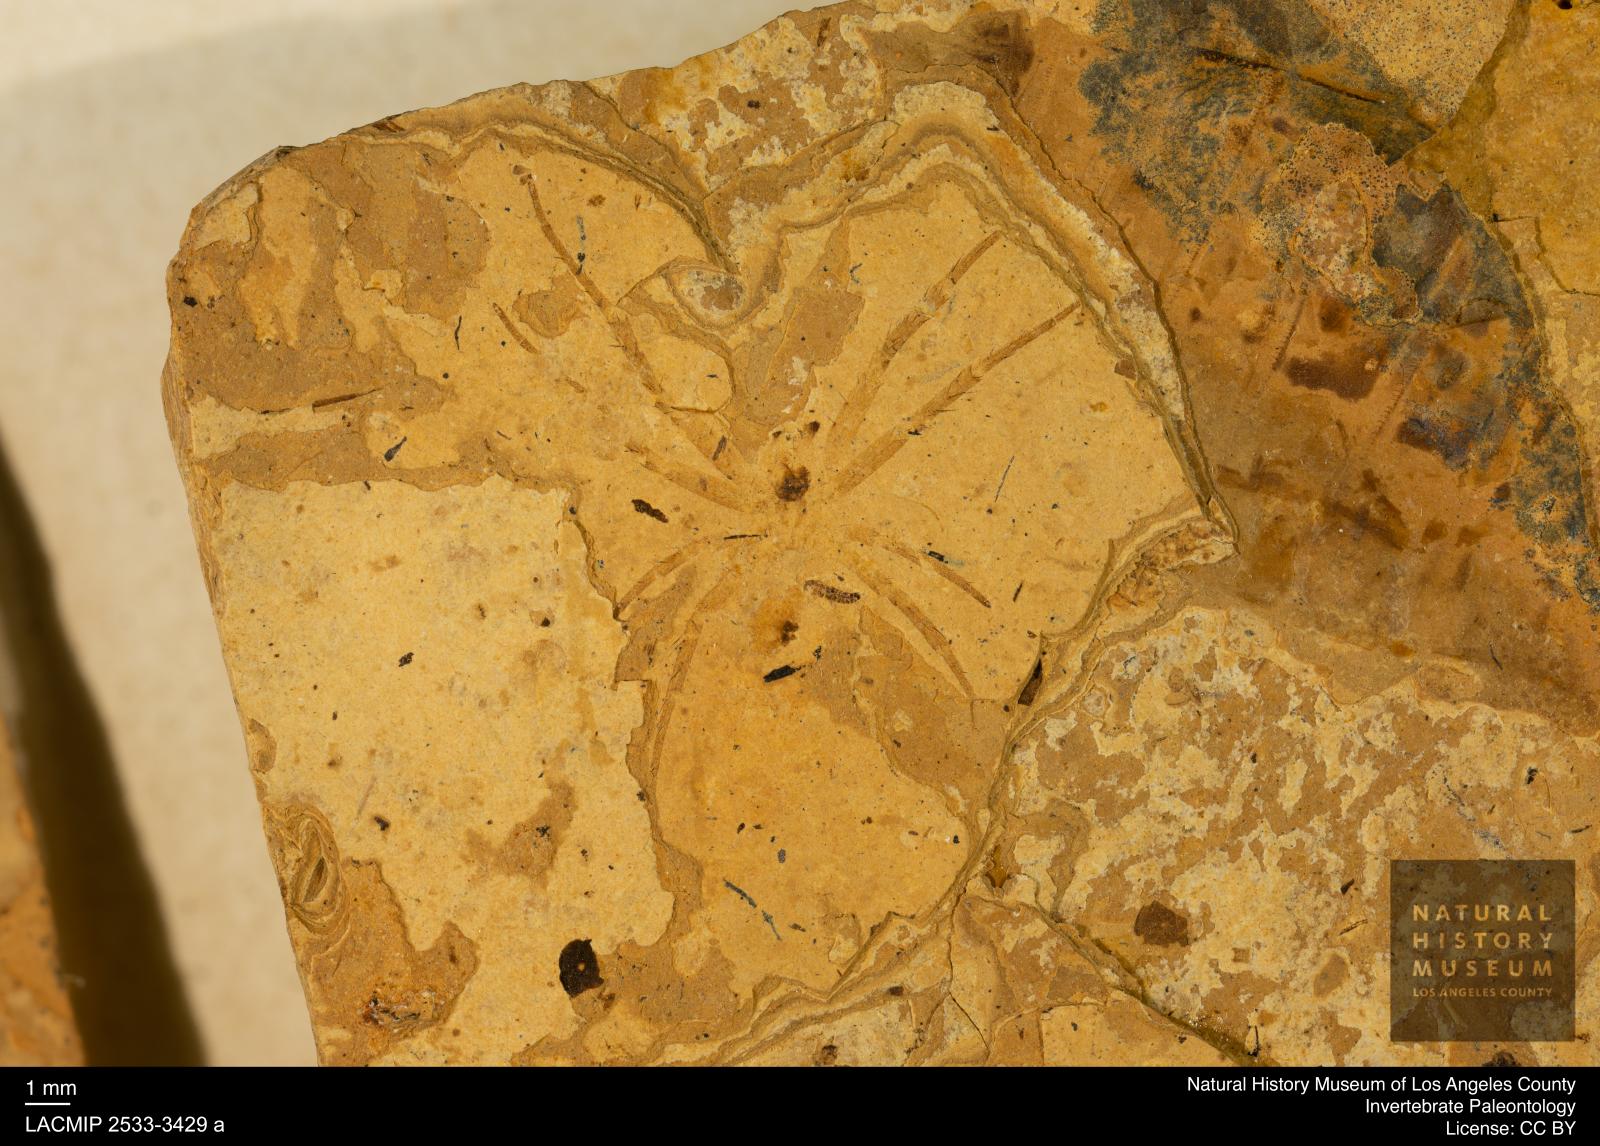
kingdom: Animalia
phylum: Arthropoda
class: Arachnida
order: Araneae
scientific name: Araneae
